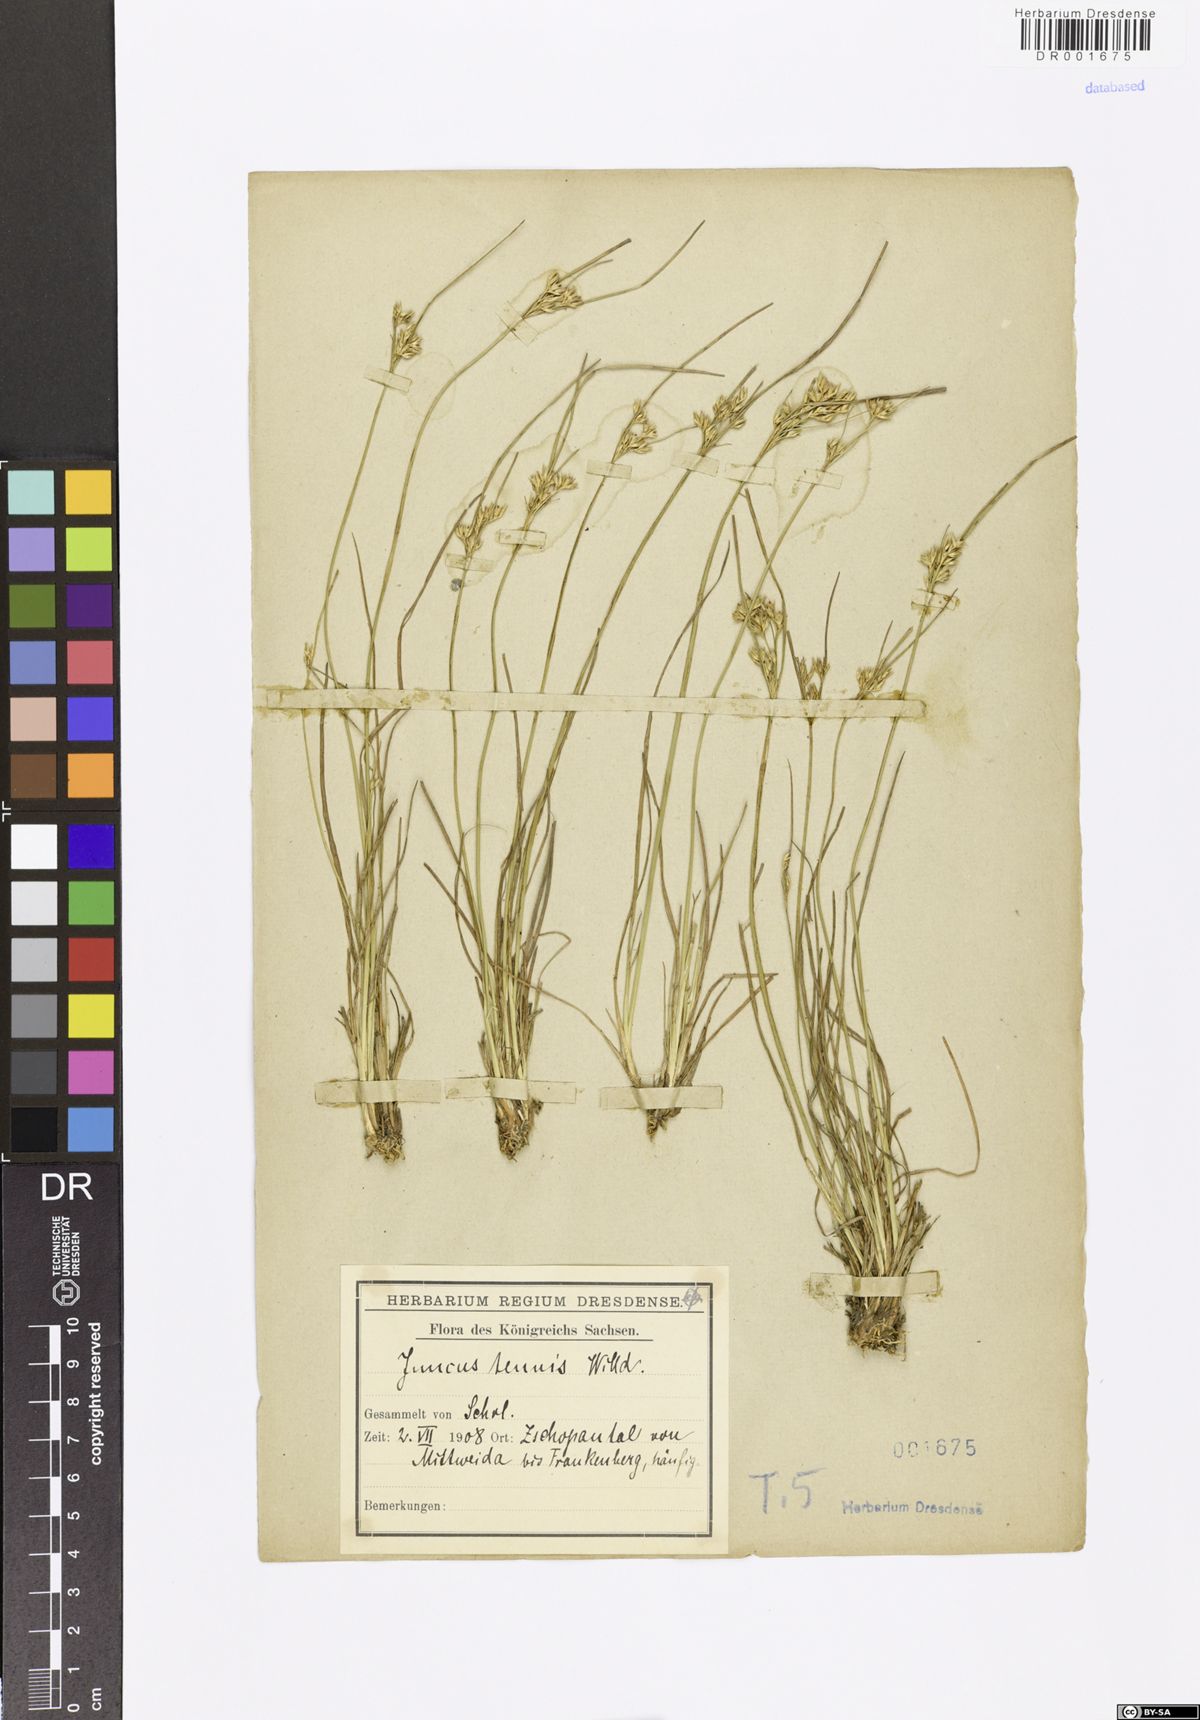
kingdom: Plantae
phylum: Tracheophyta
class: Liliopsida
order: Poales
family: Juncaceae
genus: Juncus
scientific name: Juncus tenuis
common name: Slender rush
